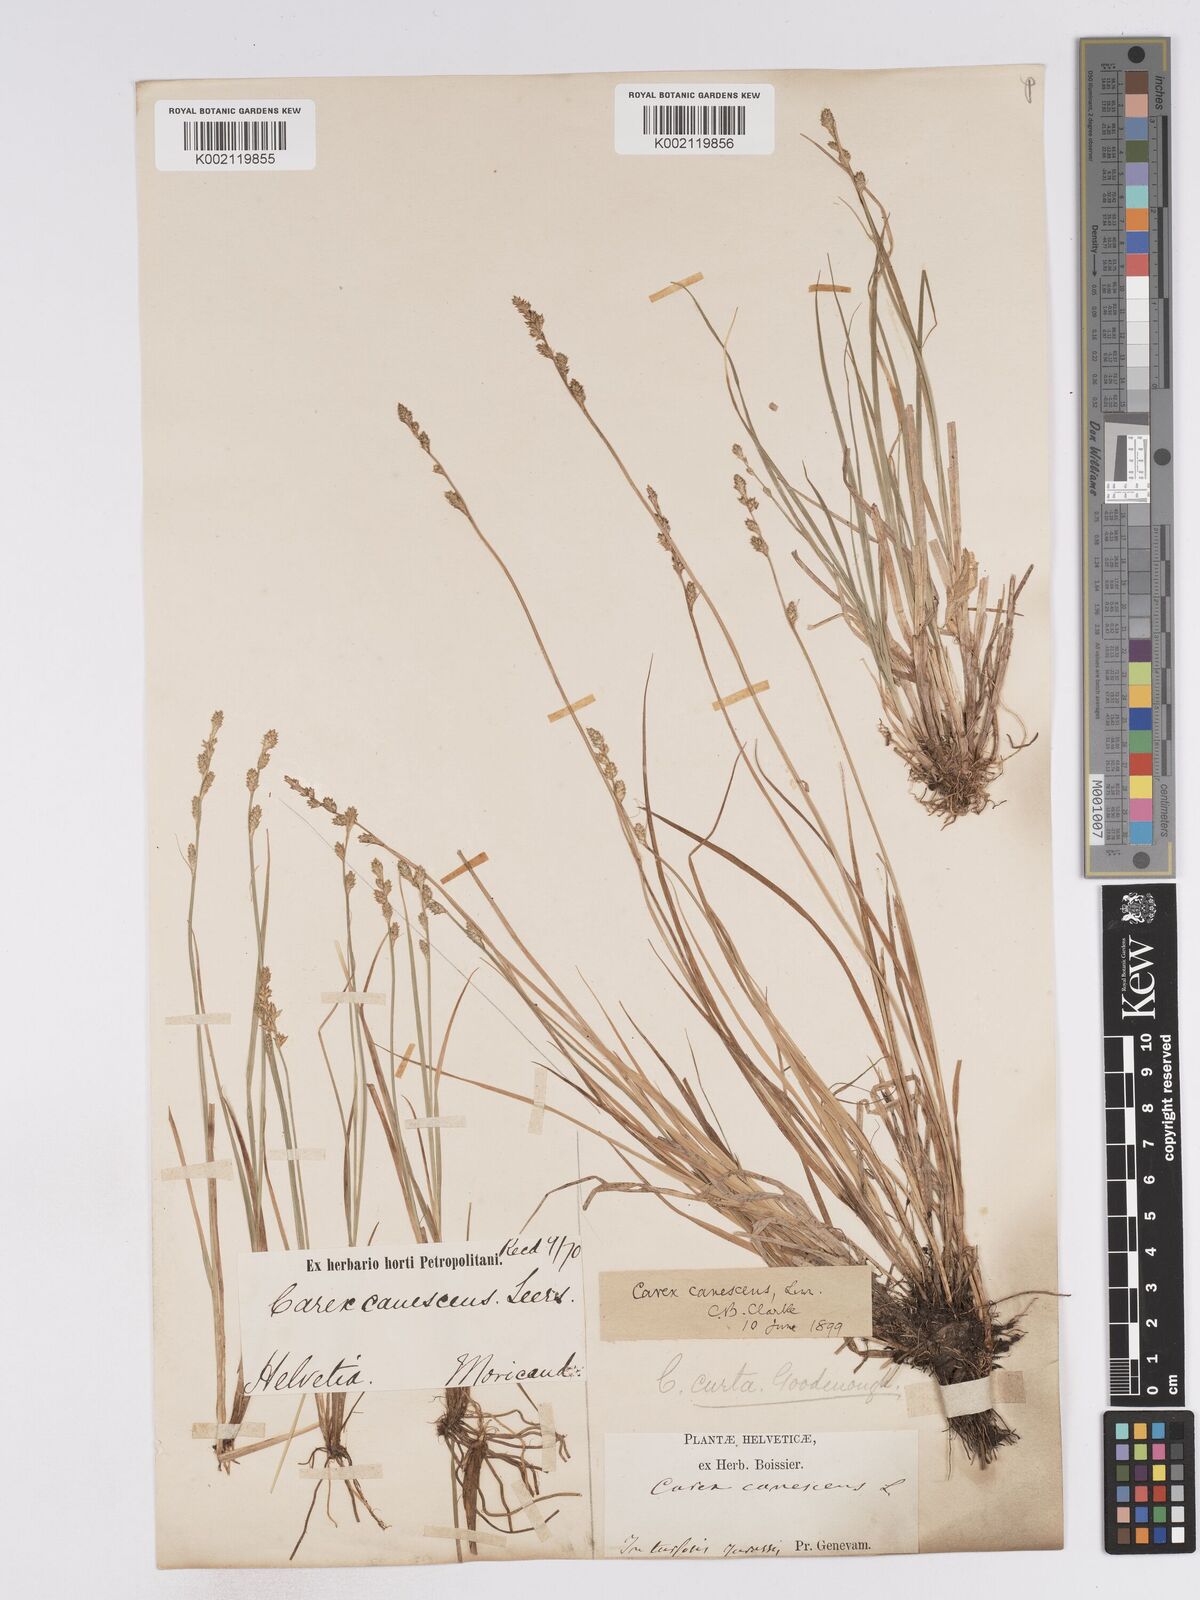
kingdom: Plantae
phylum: Tracheophyta
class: Liliopsida
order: Poales
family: Cyperaceae
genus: Carex
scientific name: Carex curta
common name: White sedge
